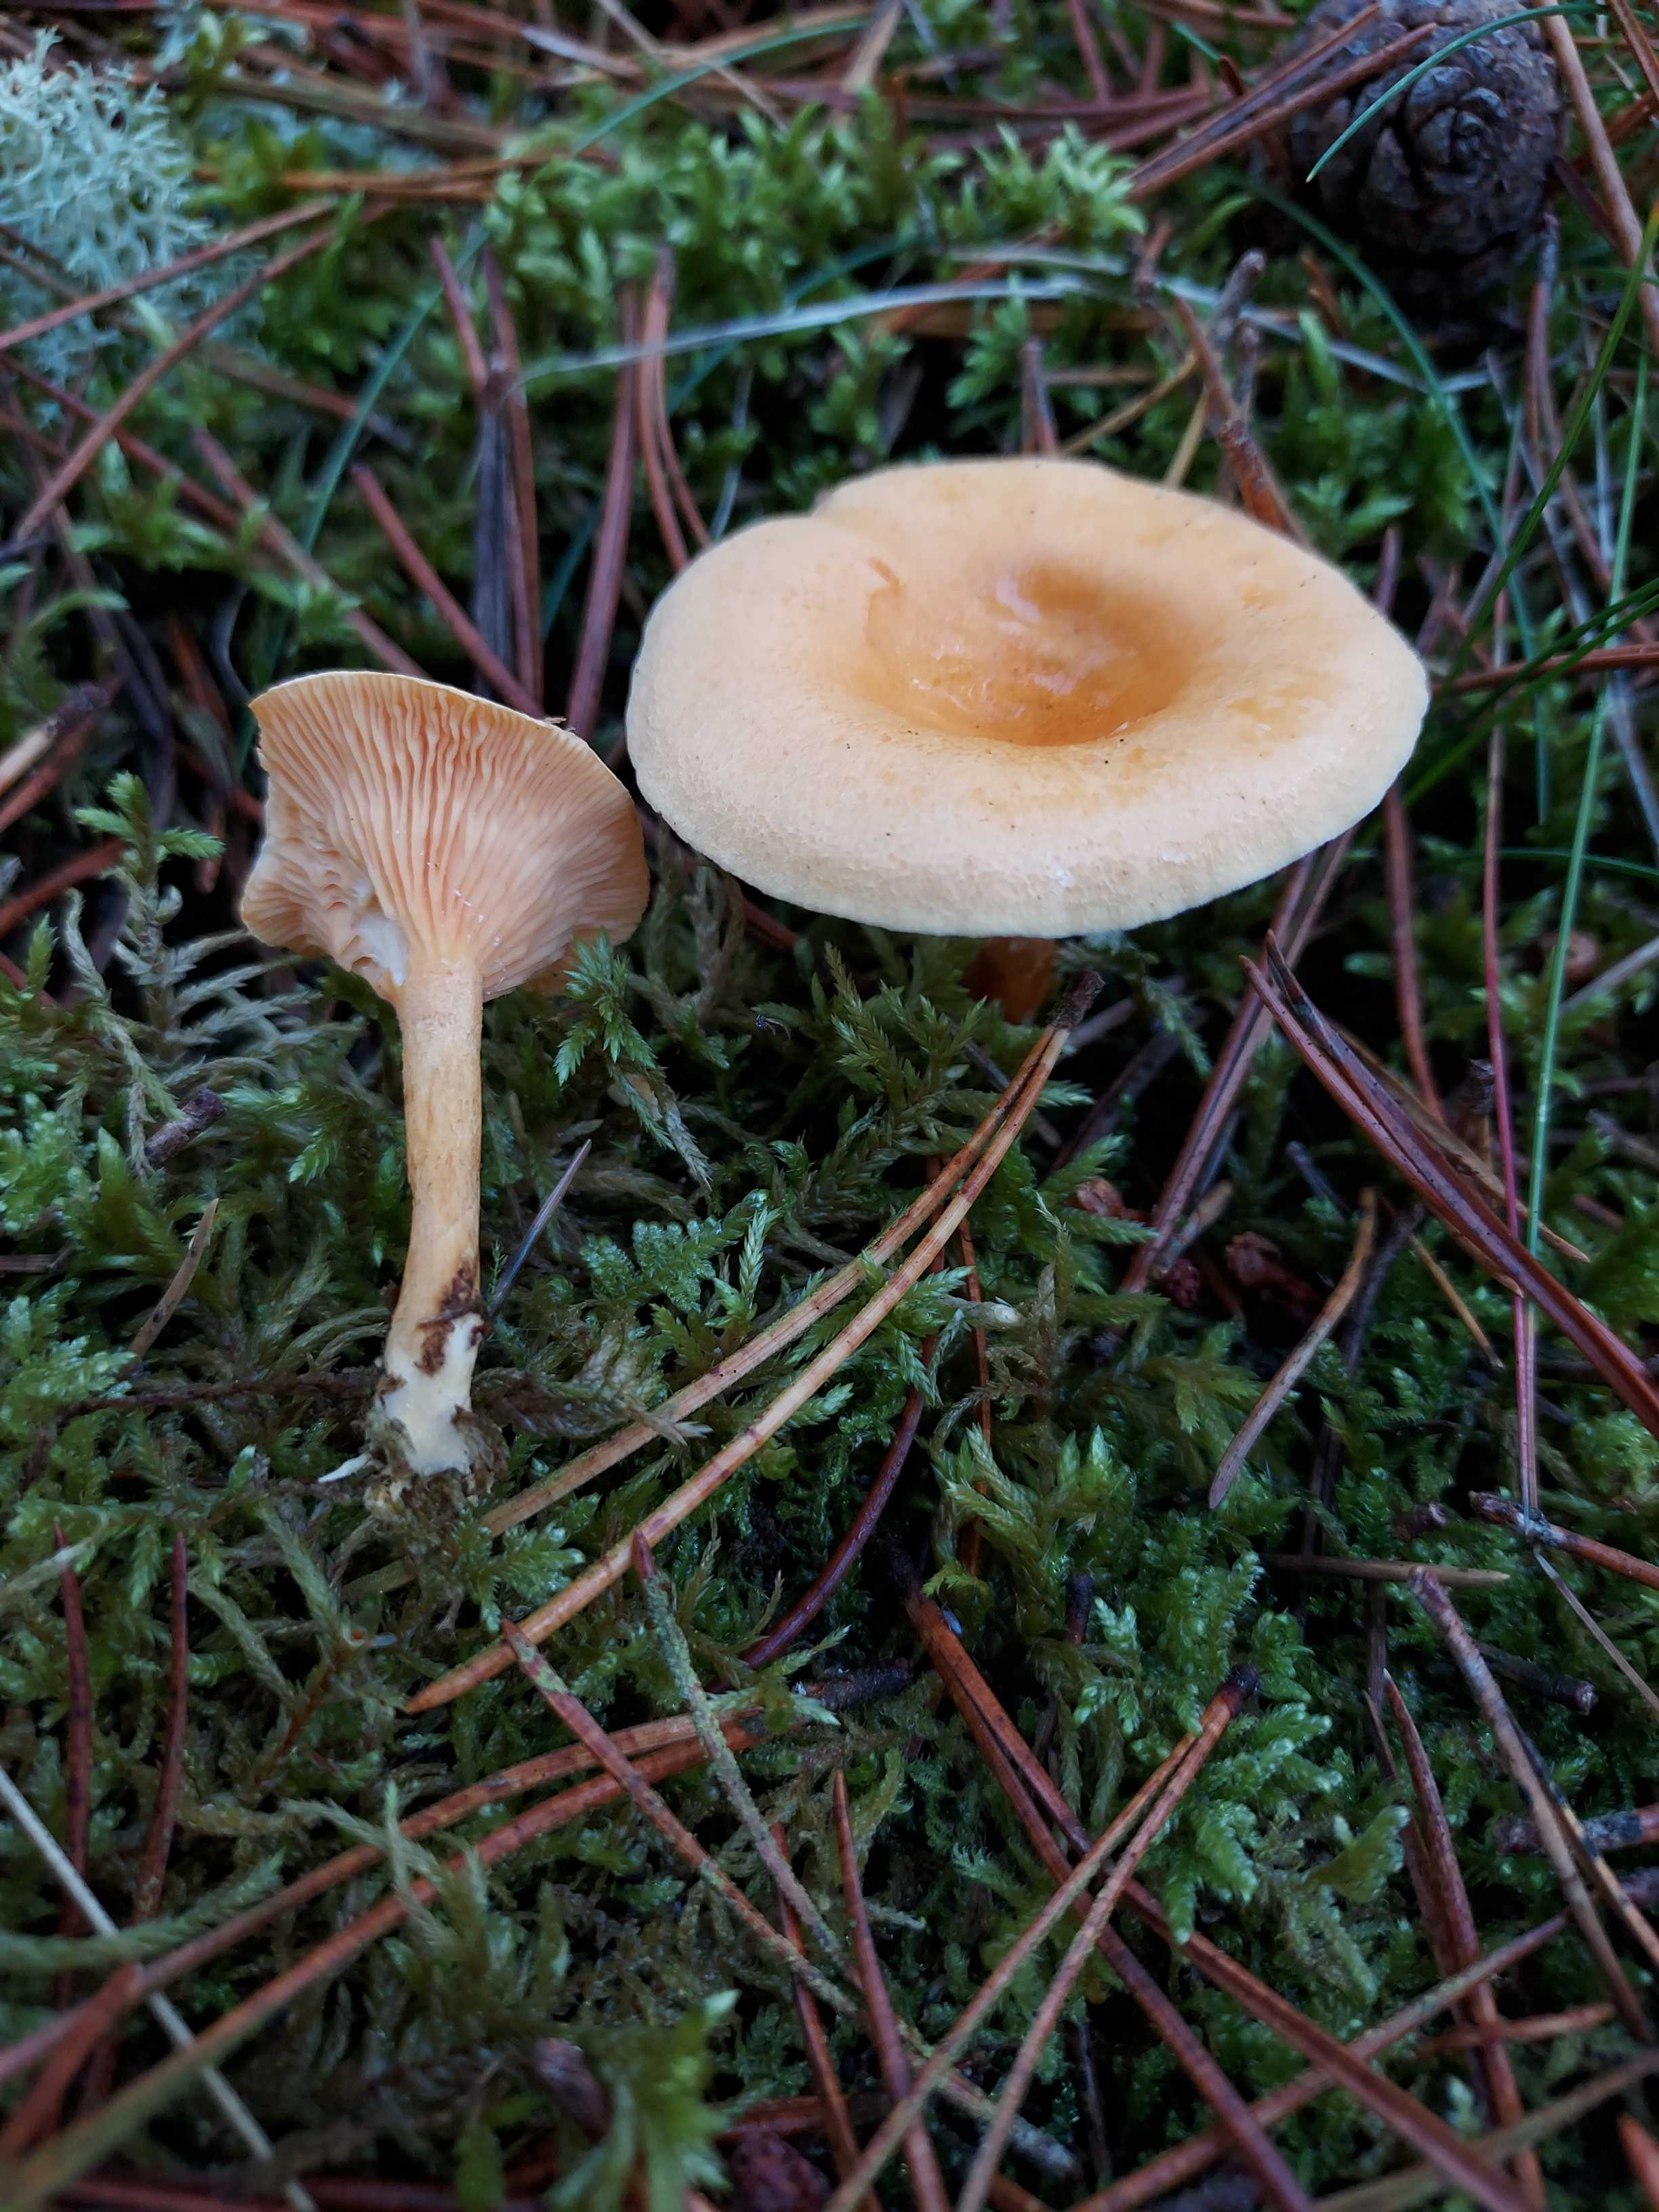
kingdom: Fungi
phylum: Basidiomycota
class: Agaricomycetes
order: Boletales
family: Hygrophoropsidaceae
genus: Hygrophoropsis
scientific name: Hygrophoropsis aurantiaca
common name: almindelig orangekantarel
